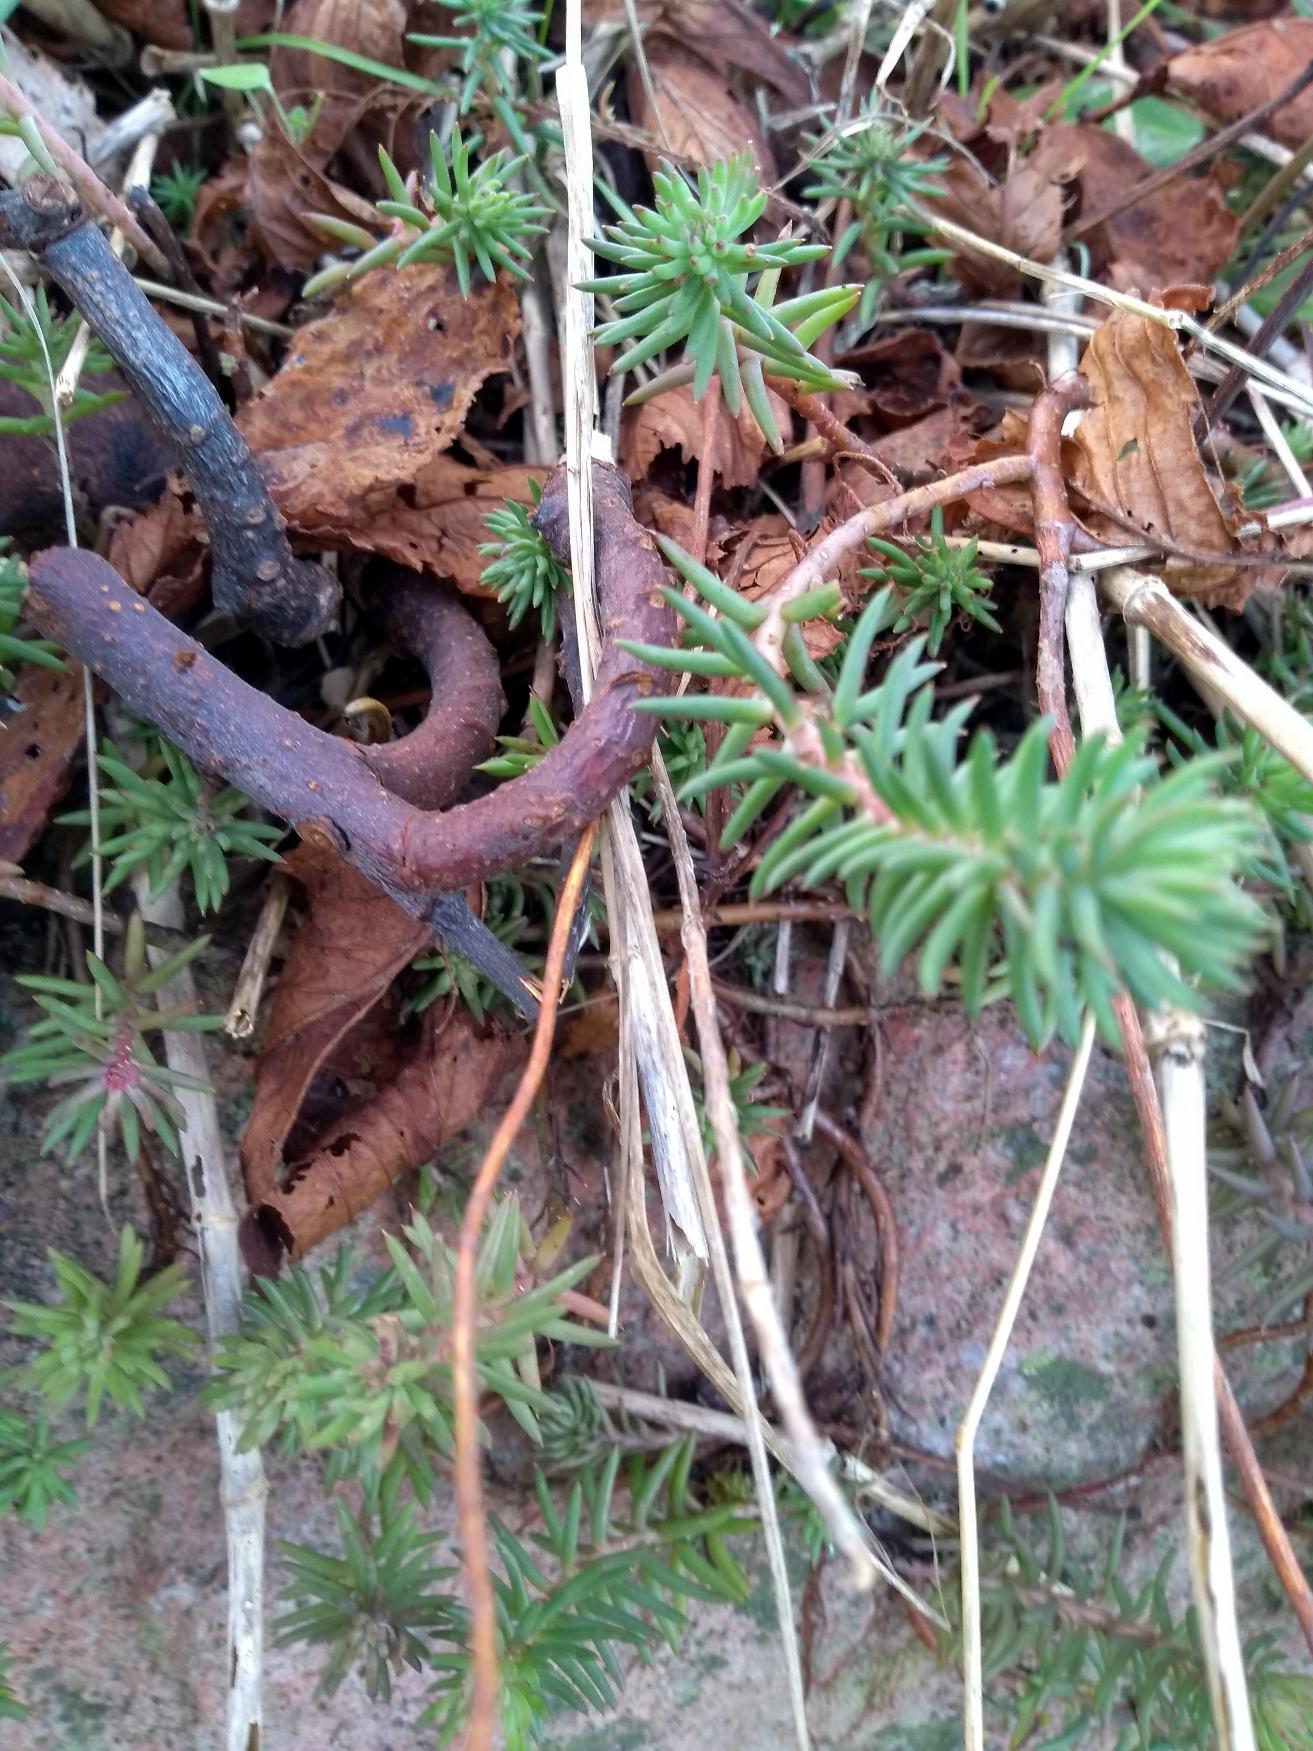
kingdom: Plantae
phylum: Tracheophyta
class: Magnoliopsida
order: Saxifragales
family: Crassulaceae
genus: Petrosedum
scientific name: Petrosedum rupestre
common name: Bjerg-stenurt
